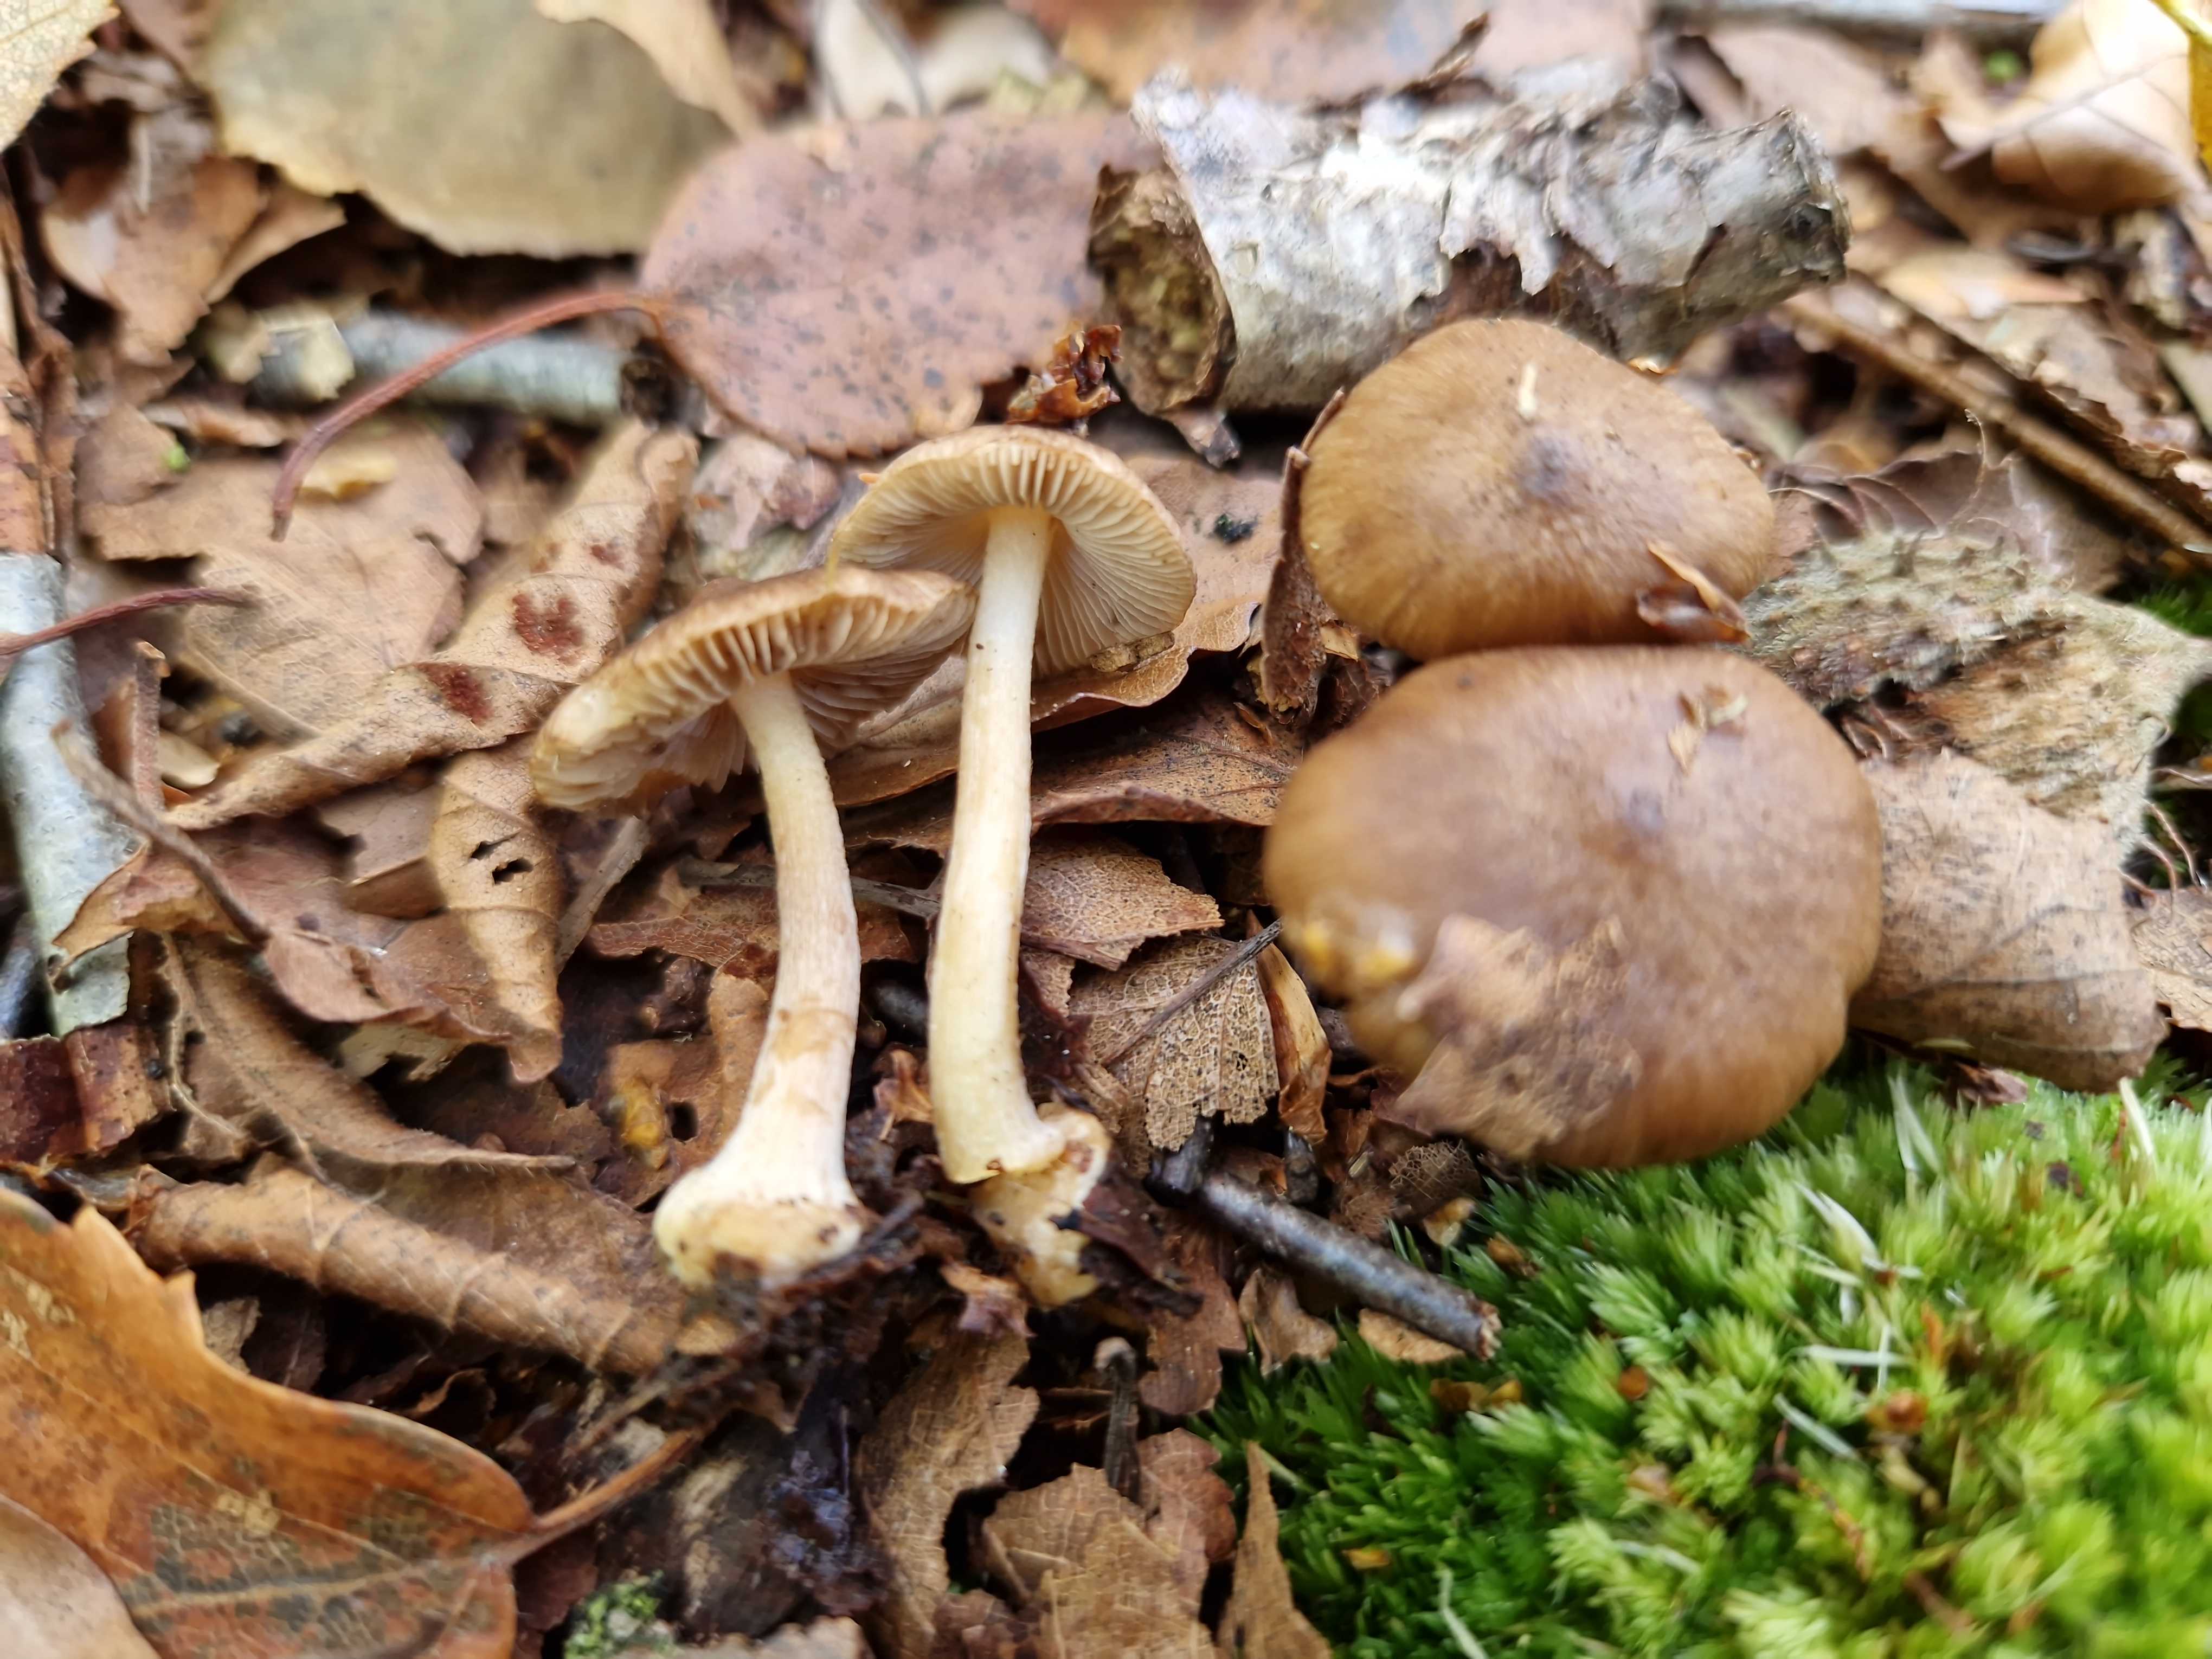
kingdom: Fungi
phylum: Basidiomycota
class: Agaricomycetes
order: Agaricales
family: Inocybaceae
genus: Inocybe
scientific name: Inocybe napipes
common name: roeknoldet trævlhat
